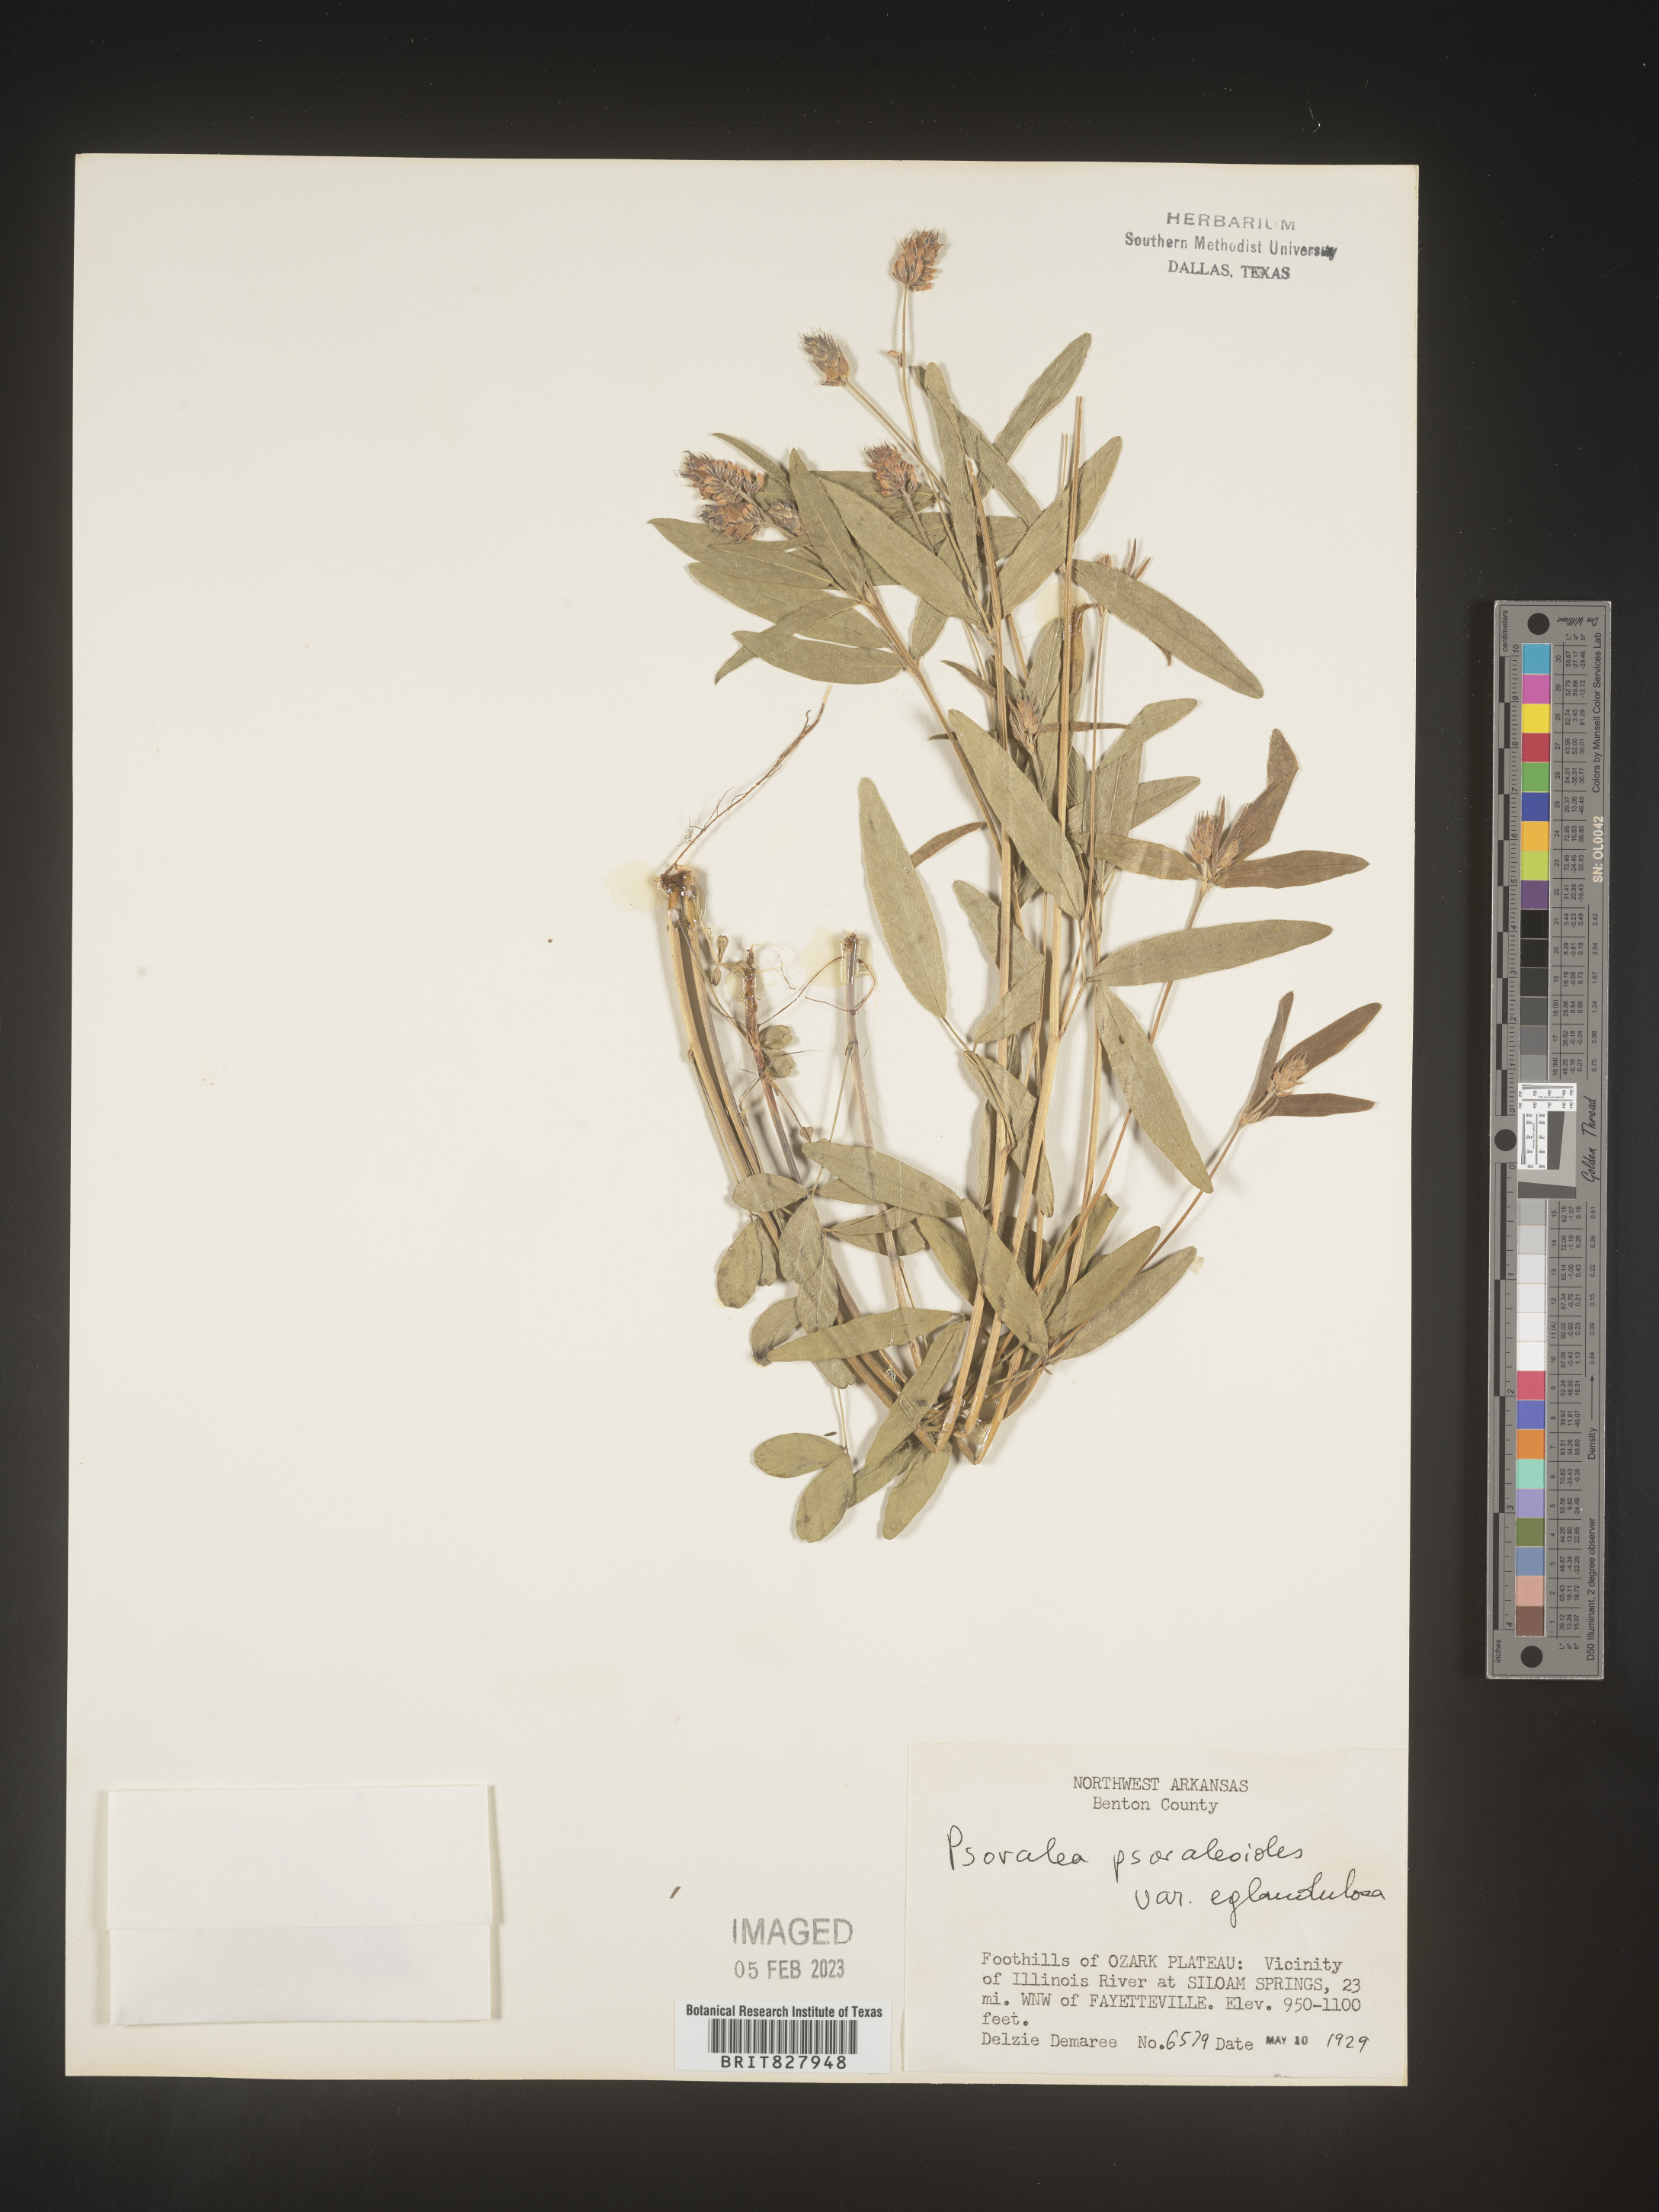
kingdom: Plantae
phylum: Tracheophyta
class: Magnoliopsida
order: Fabales
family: Fabaceae
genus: Orbexilum
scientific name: Orbexilum pedunculatum
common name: Sampson's snakeroot
